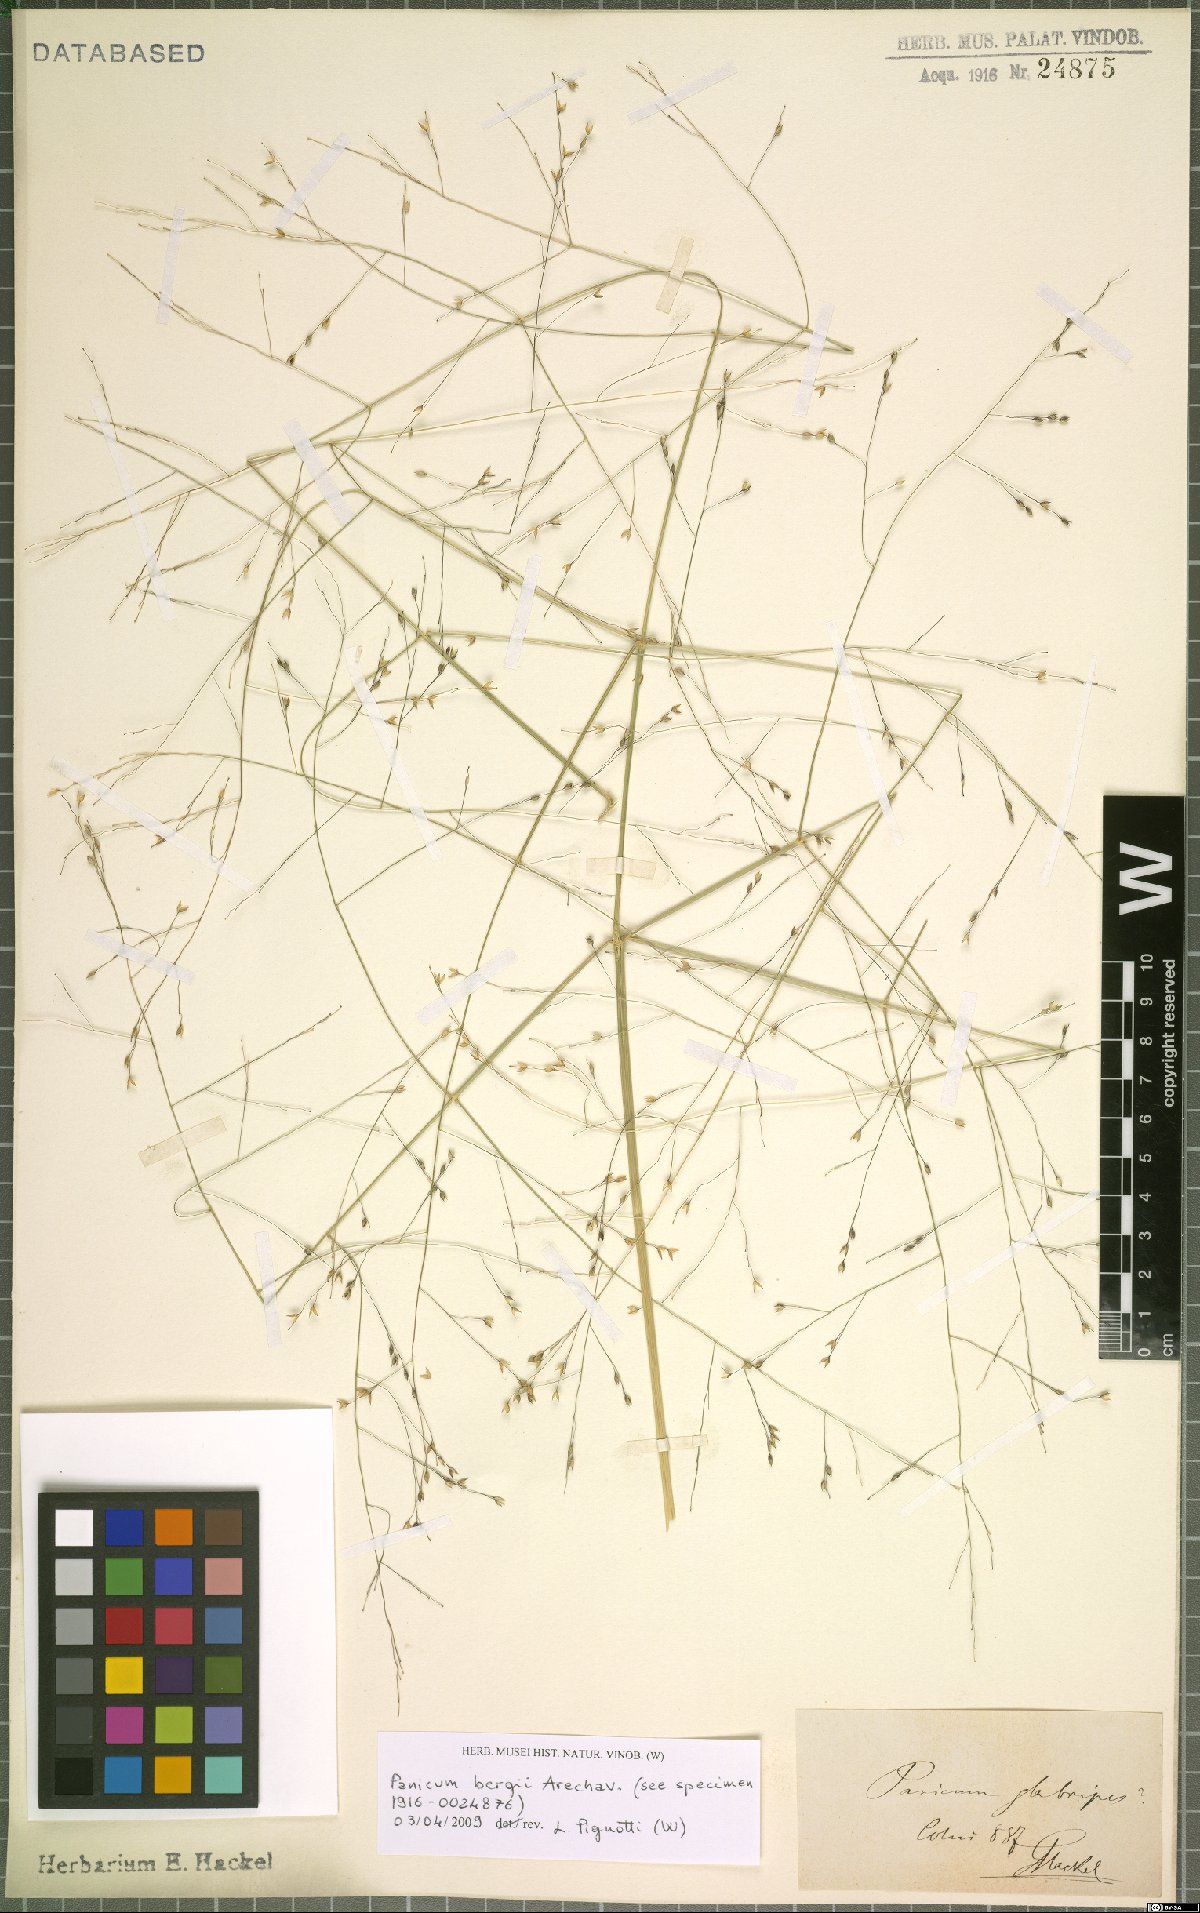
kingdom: Plantae
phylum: Tracheophyta
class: Liliopsida
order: Poales
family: Poaceae
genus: Panicum
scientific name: Panicum bergii
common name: Berg's panicgrass
